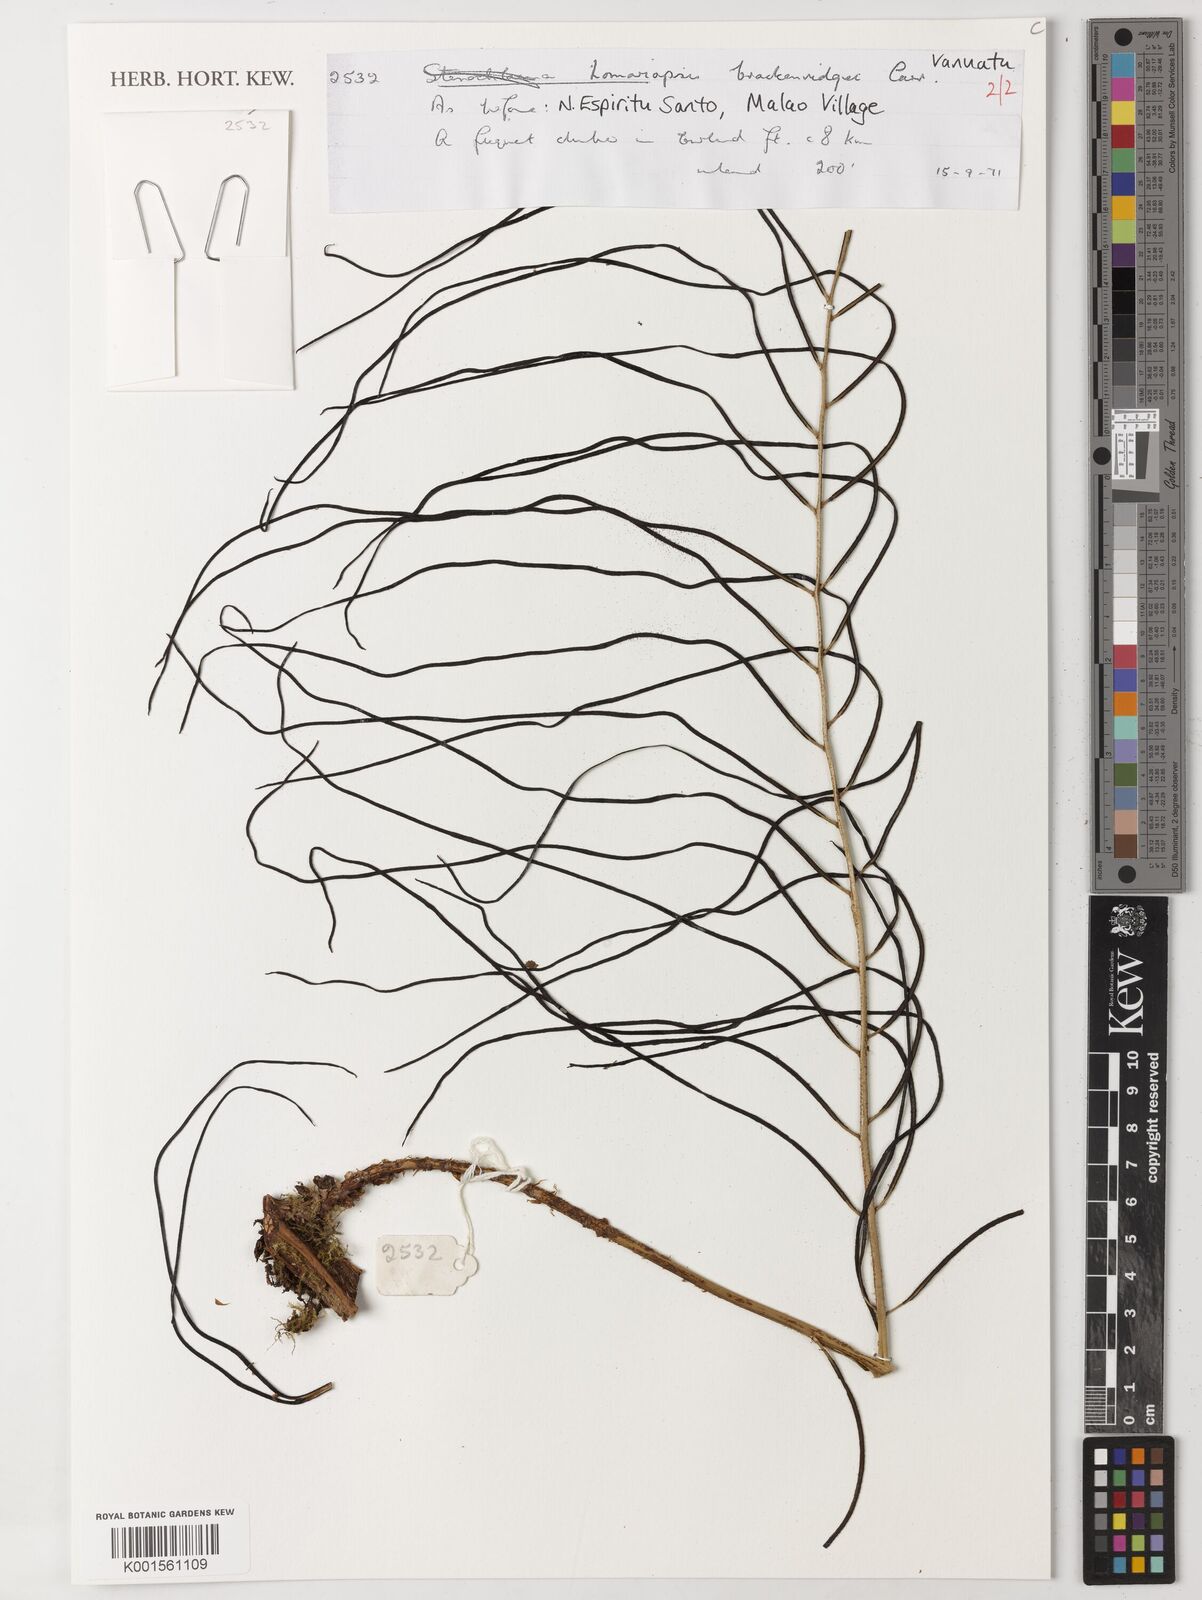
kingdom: Plantae
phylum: Tracheophyta
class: Polypodiopsida
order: Polypodiales
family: Lomariopsidaceae
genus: Lomariopsis
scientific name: Lomariopsis brackenridgei
